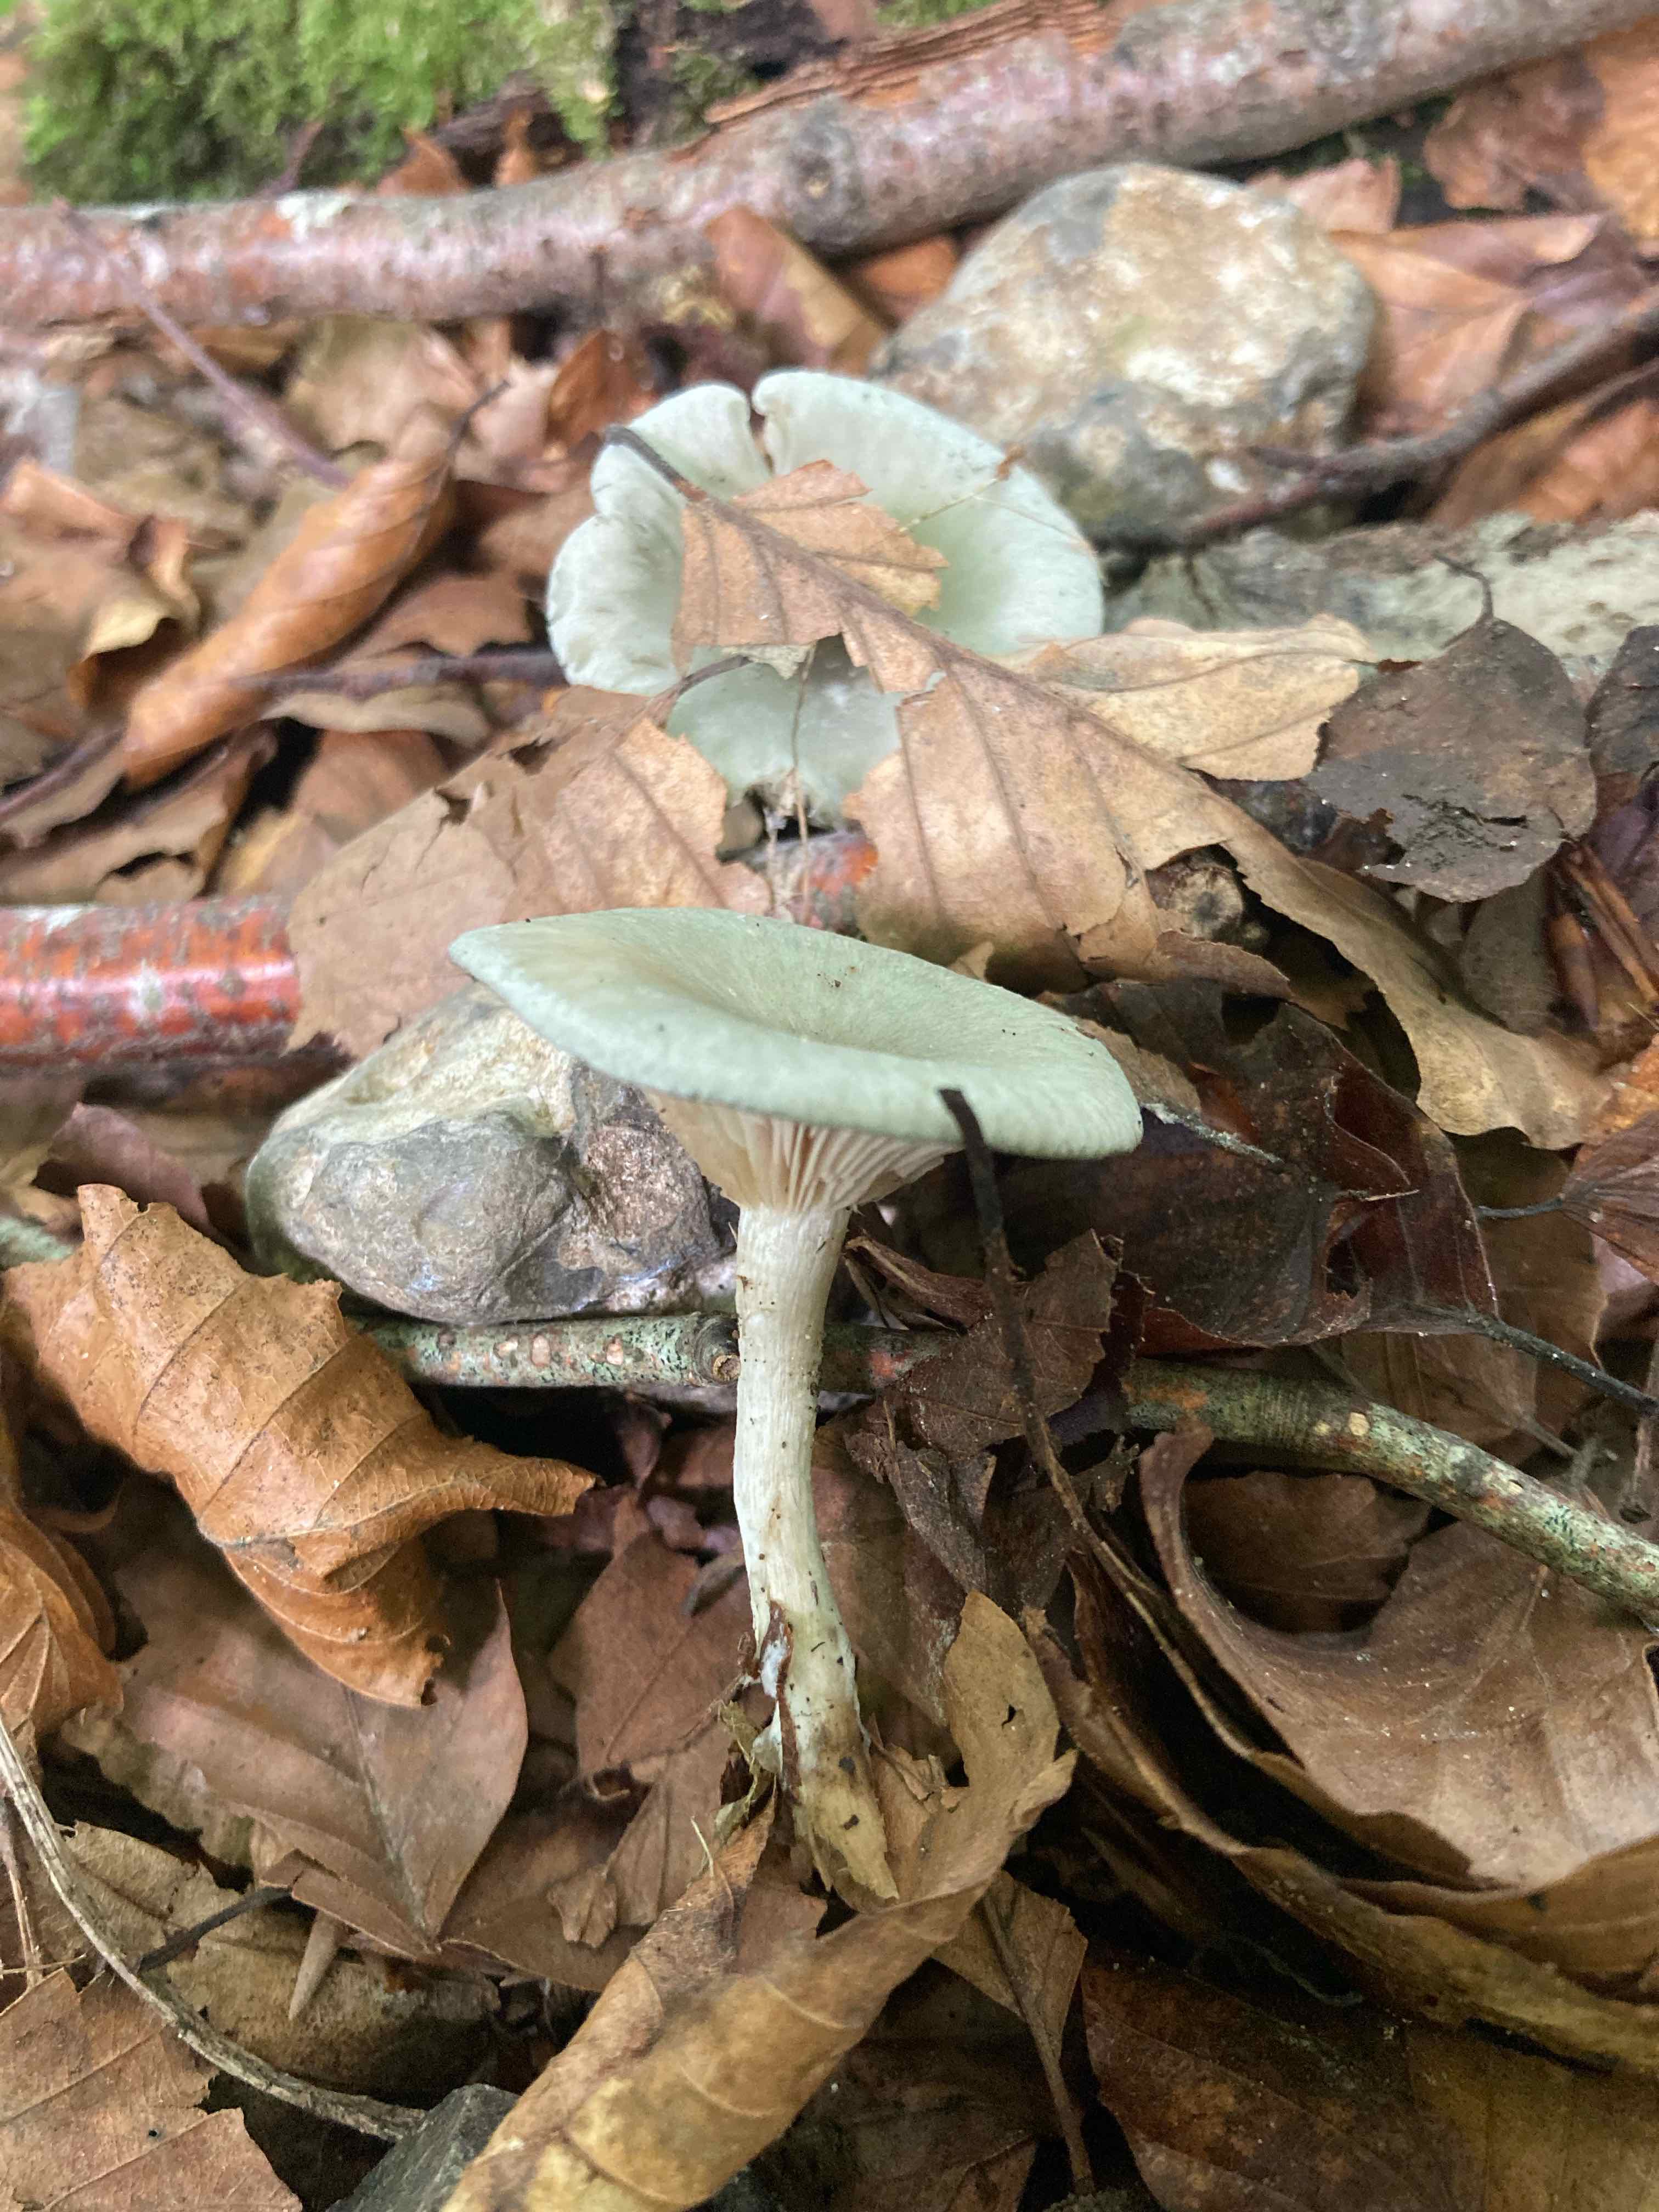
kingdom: Fungi
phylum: Basidiomycota
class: Agaricomycetes
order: Agaricales
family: Tricholomataceae
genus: Clitocybe
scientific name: Clitocybe odora
